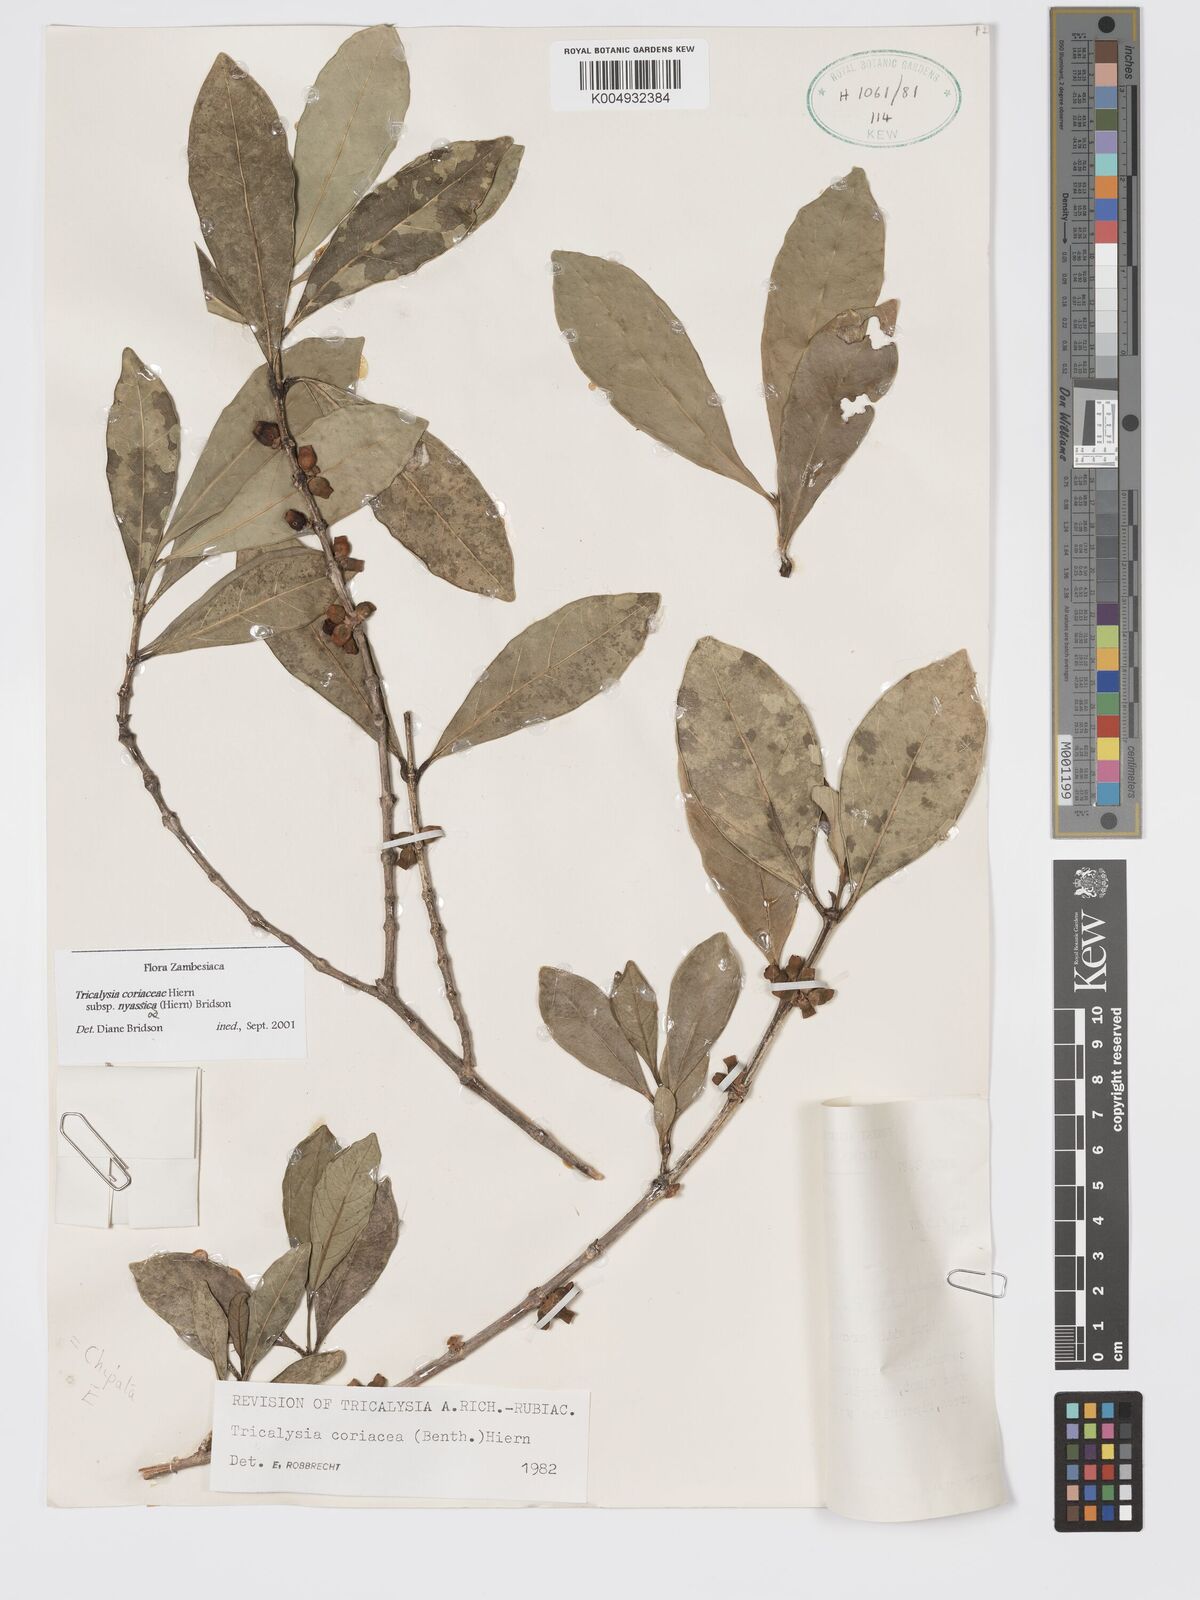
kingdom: Plantae
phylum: Tracheophyta
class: Magnoliopsida
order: Gentianales
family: Rubiaceae
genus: Tricalysia
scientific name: Tricalysia coriacea
